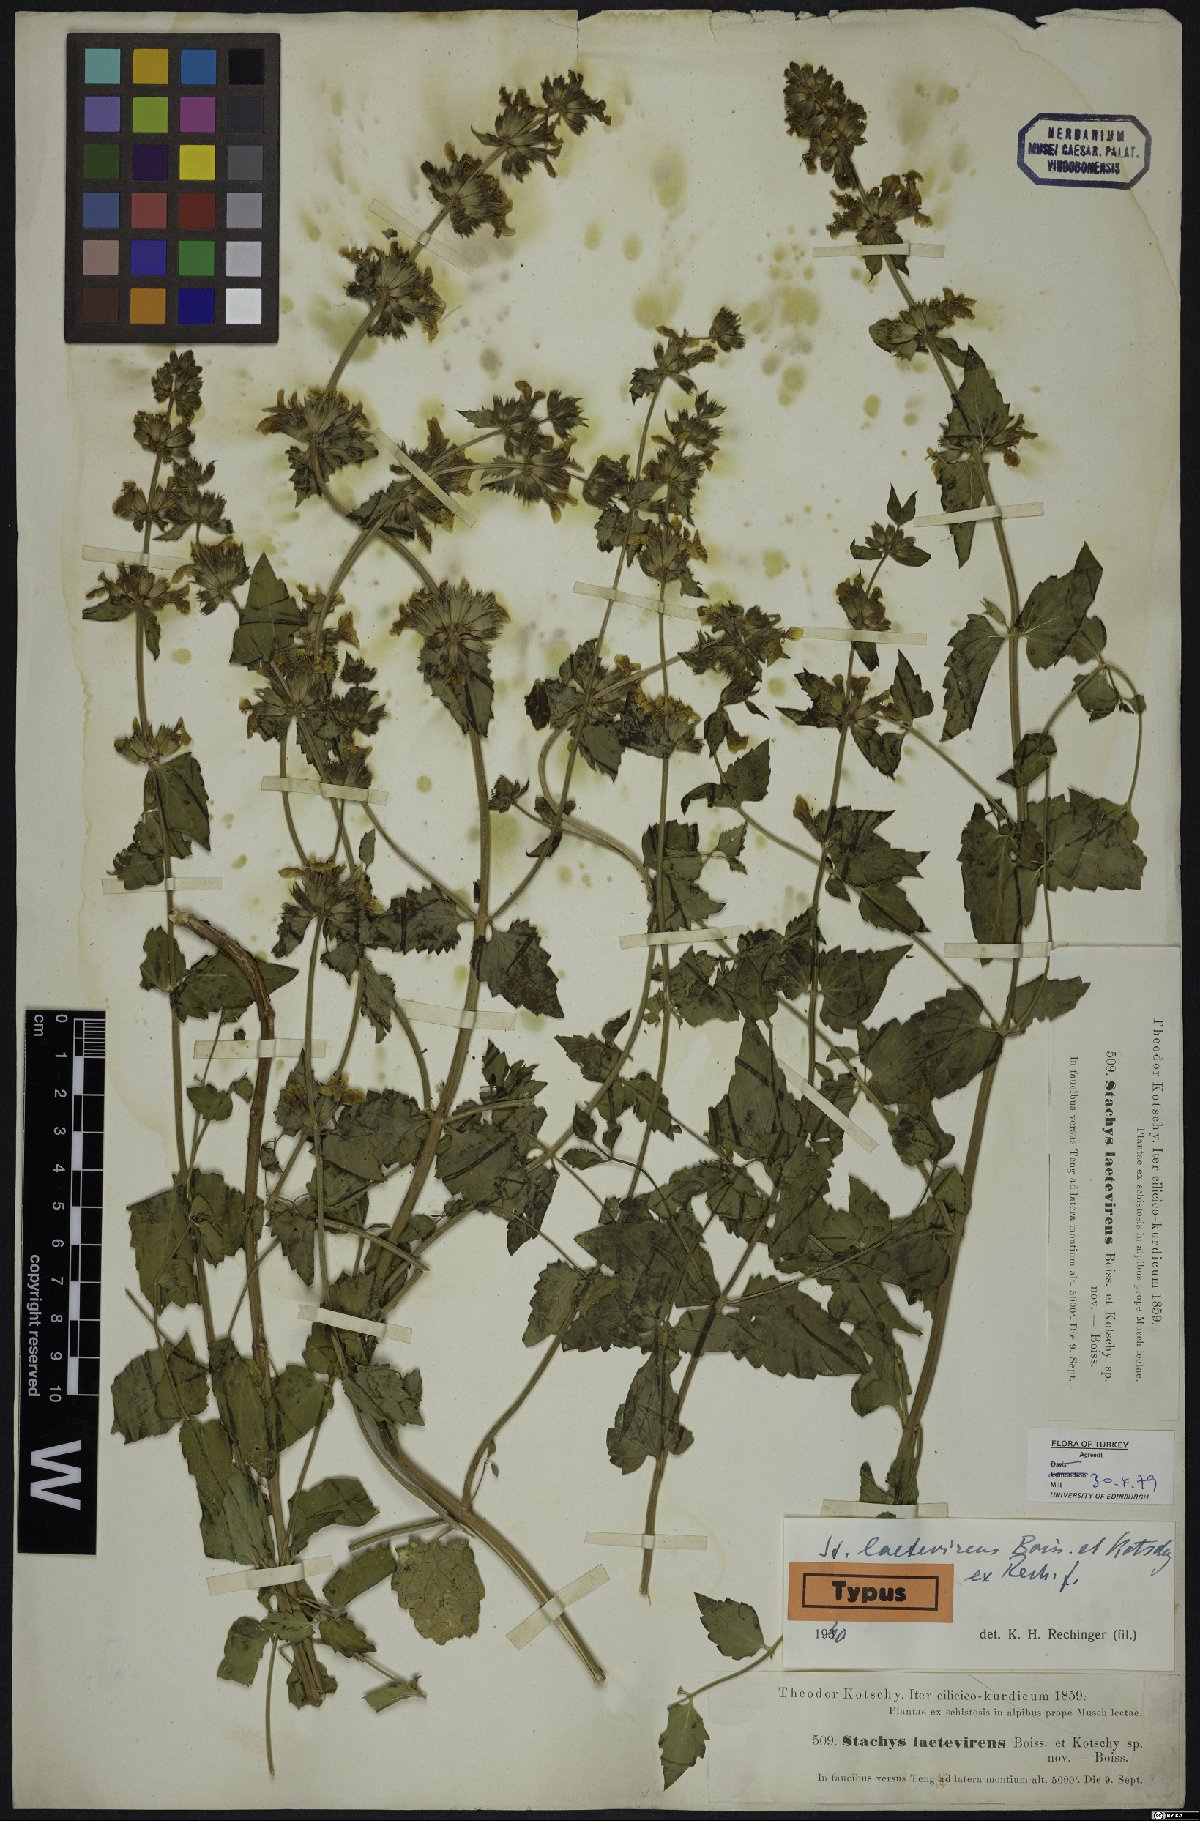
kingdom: Plantae
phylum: Tracheophyta
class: Magnoliopsida
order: Lamiales
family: Lamiaceae
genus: Stachys
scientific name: Stachys viscosa
